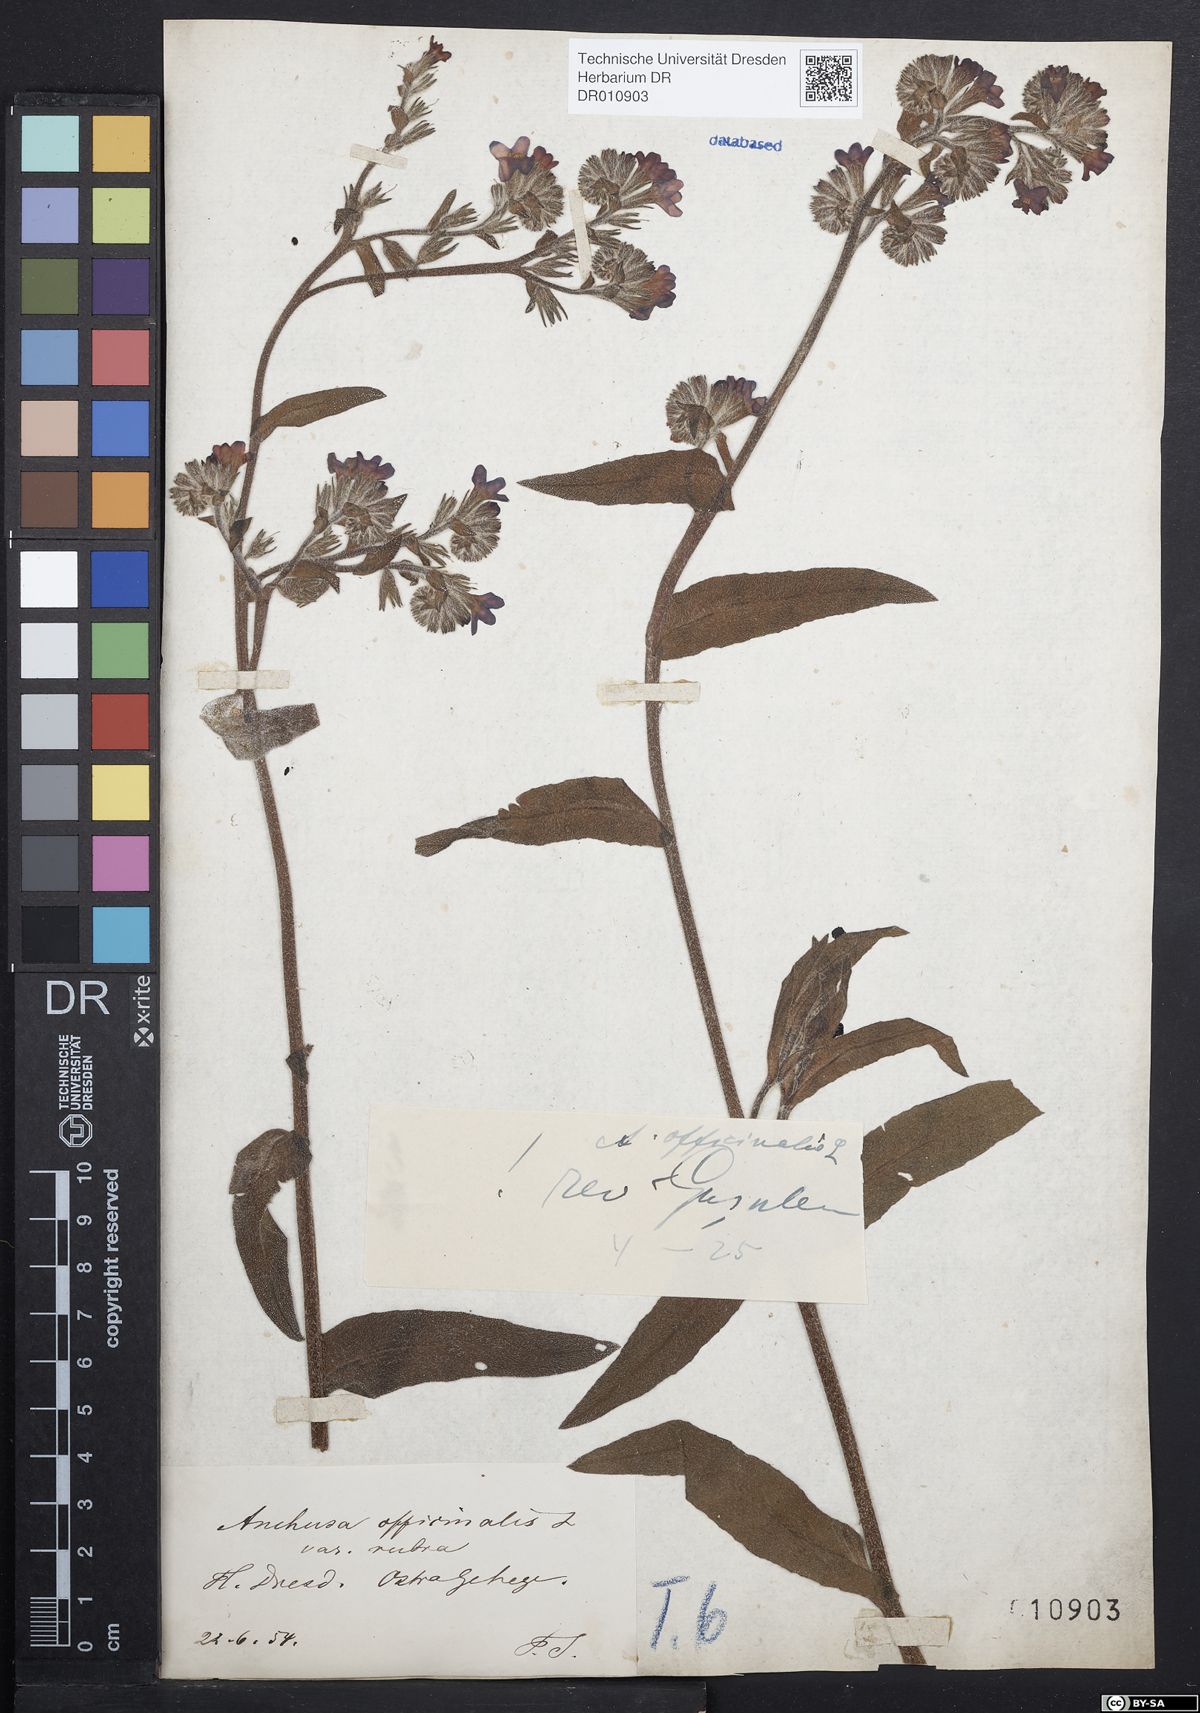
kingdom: Plantae
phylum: Tracheophyta
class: Magnoliopsida
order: Boraginales
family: Boraginaceae
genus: Anchusa
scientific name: Anchusa officinalis
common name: Alkanet
